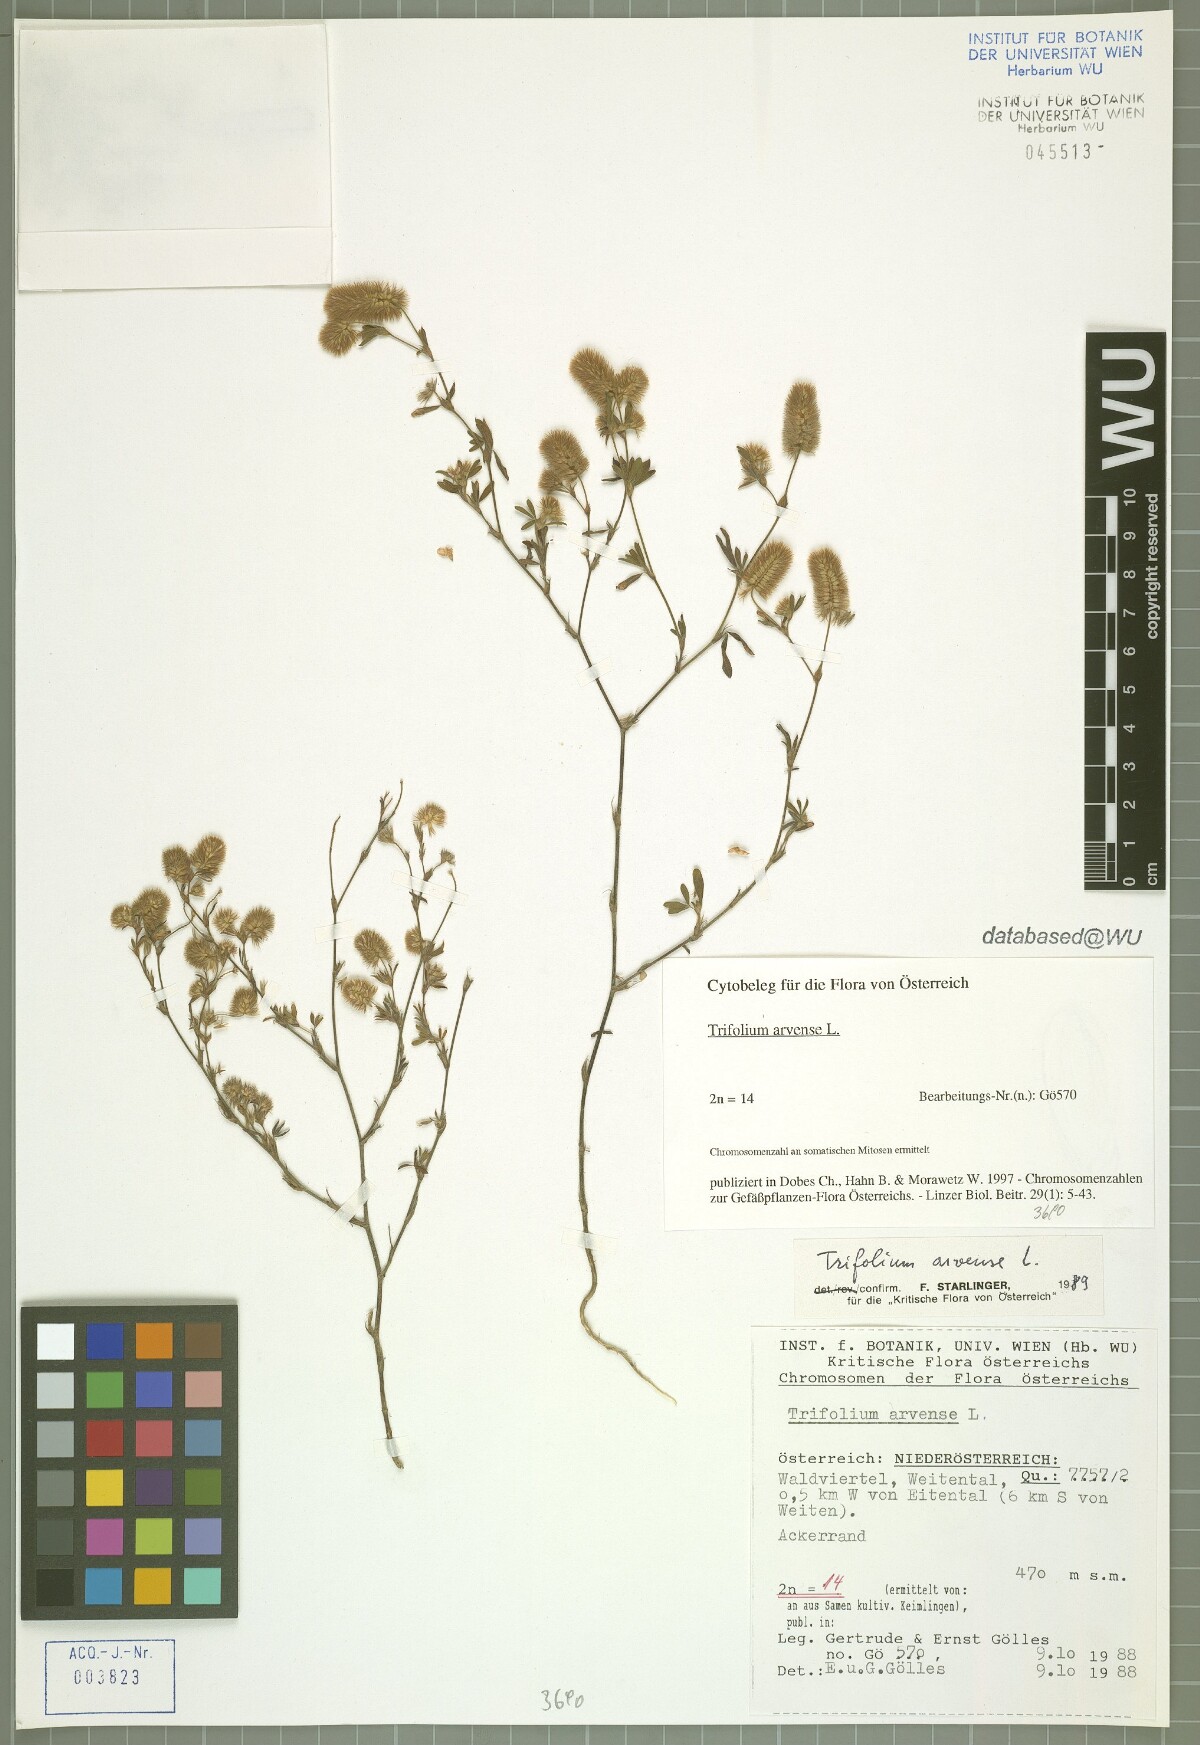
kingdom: Plantae
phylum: Tracheophyta
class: Magnoliopsida
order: Fabales
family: Fabaceae
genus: Trifolium
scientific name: Trifolium arvense
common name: Hare's-foot clover
